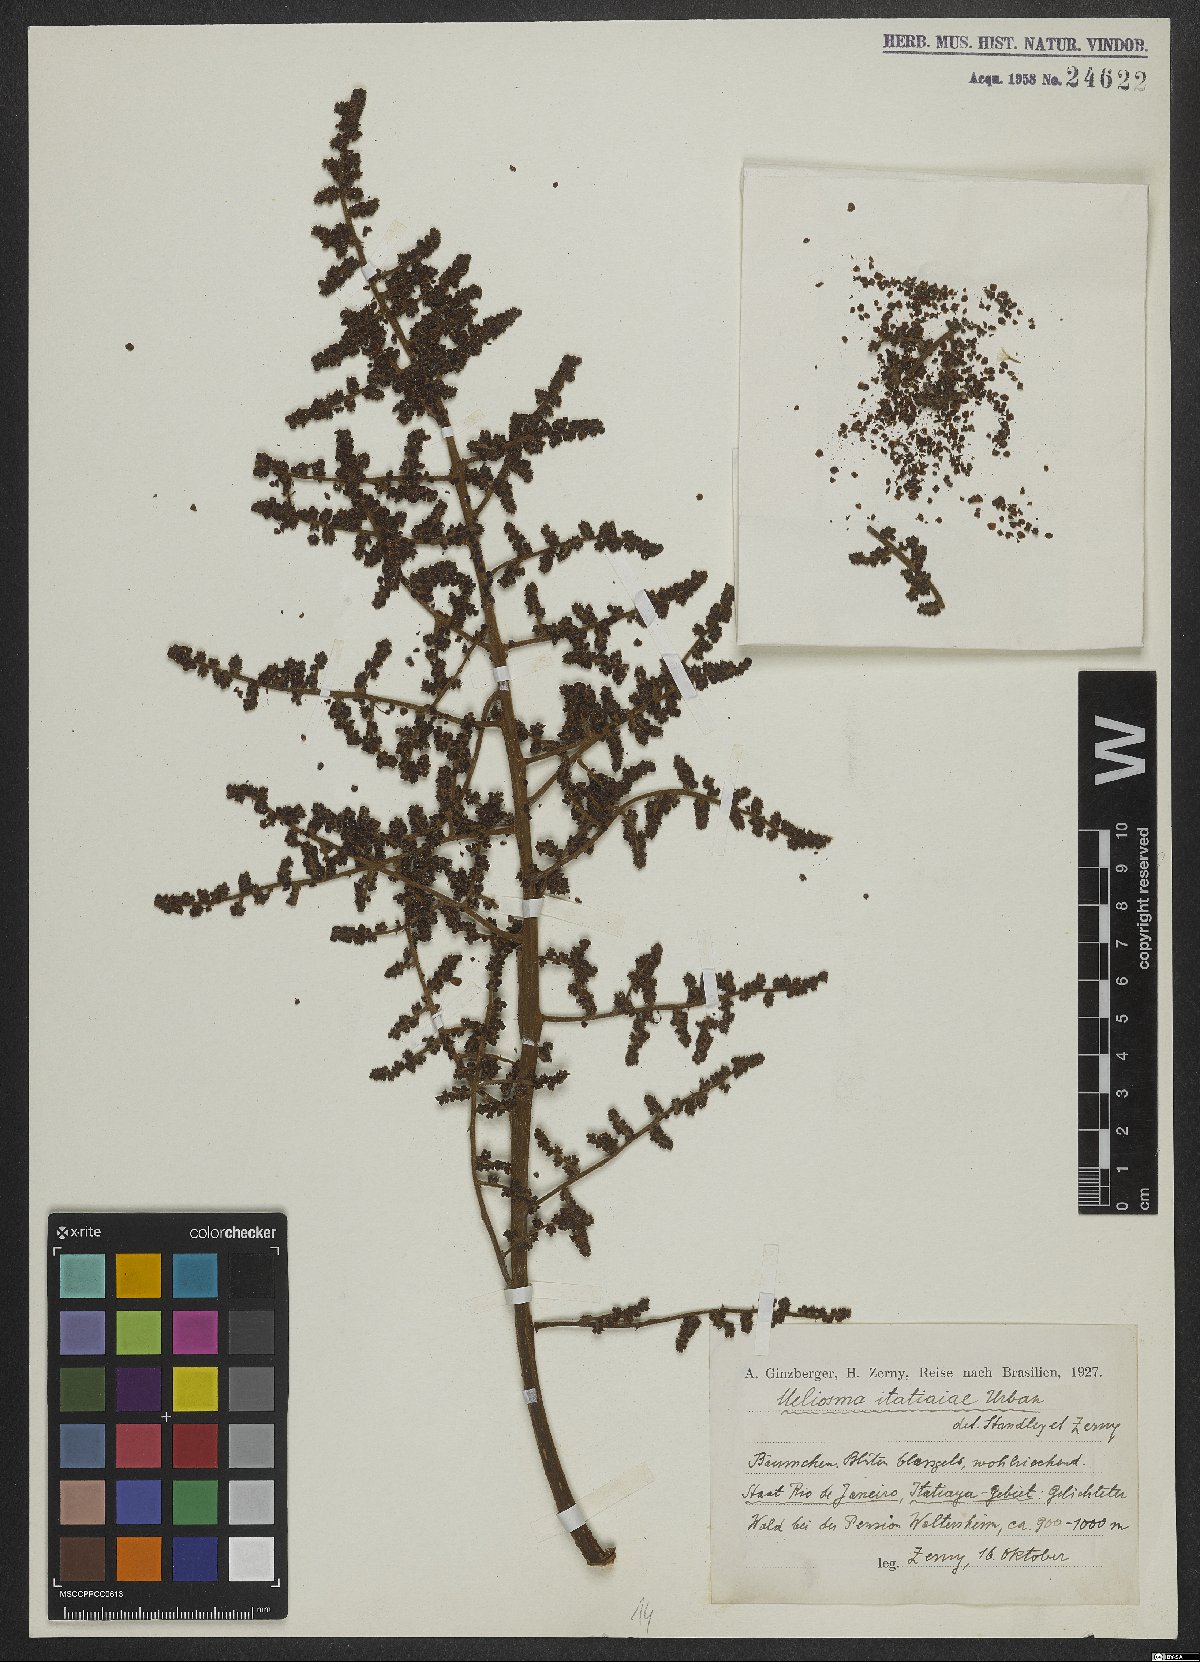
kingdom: Plantae
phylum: Tracheophyta
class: Magnoliopsida
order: Proteales
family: Sabiaceae
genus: Meliosma
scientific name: Meliosma itatiaiae
